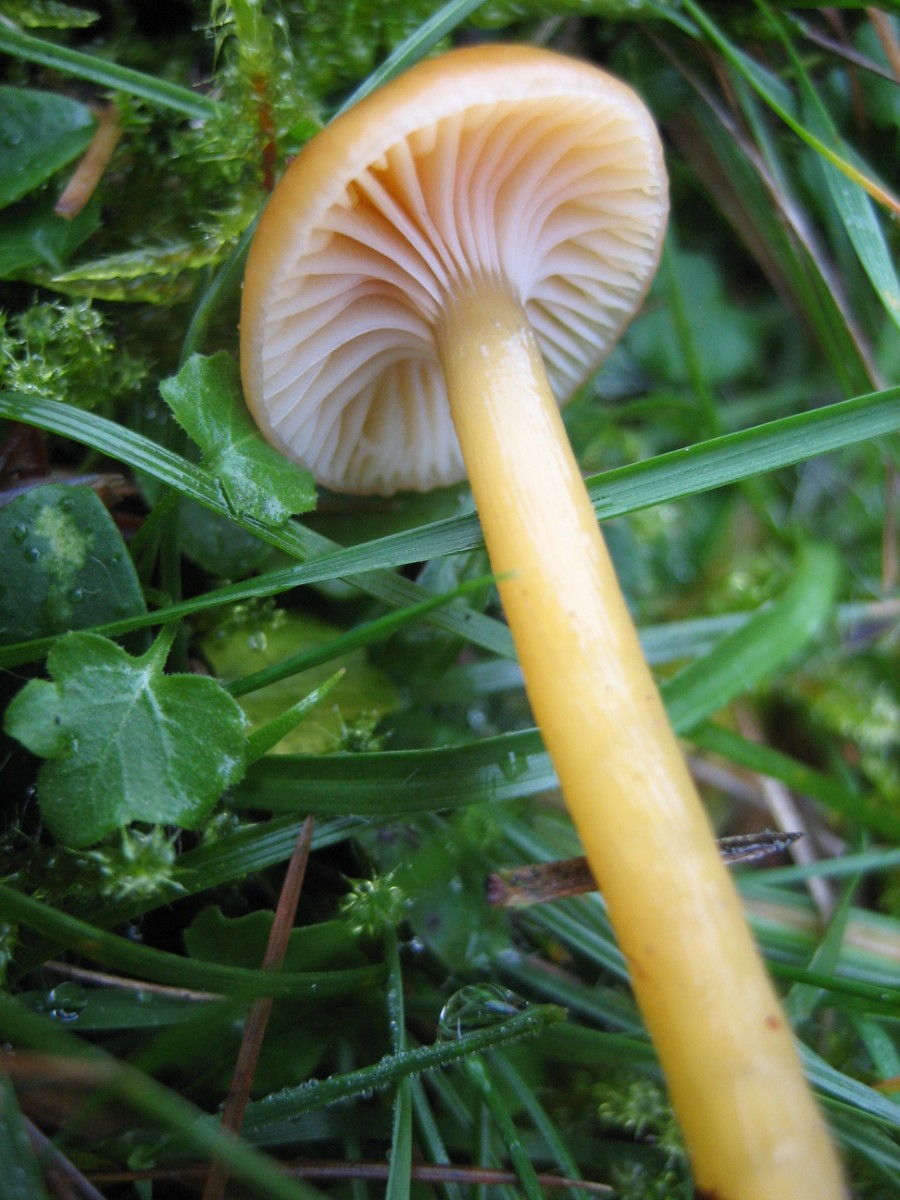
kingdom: Fungi
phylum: Basidiomycota
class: Agaricomycetes
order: Agaricales
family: Hygrophoraceae
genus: Gliophorus
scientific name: Gliophorus laetus
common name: brusk-vokshat
